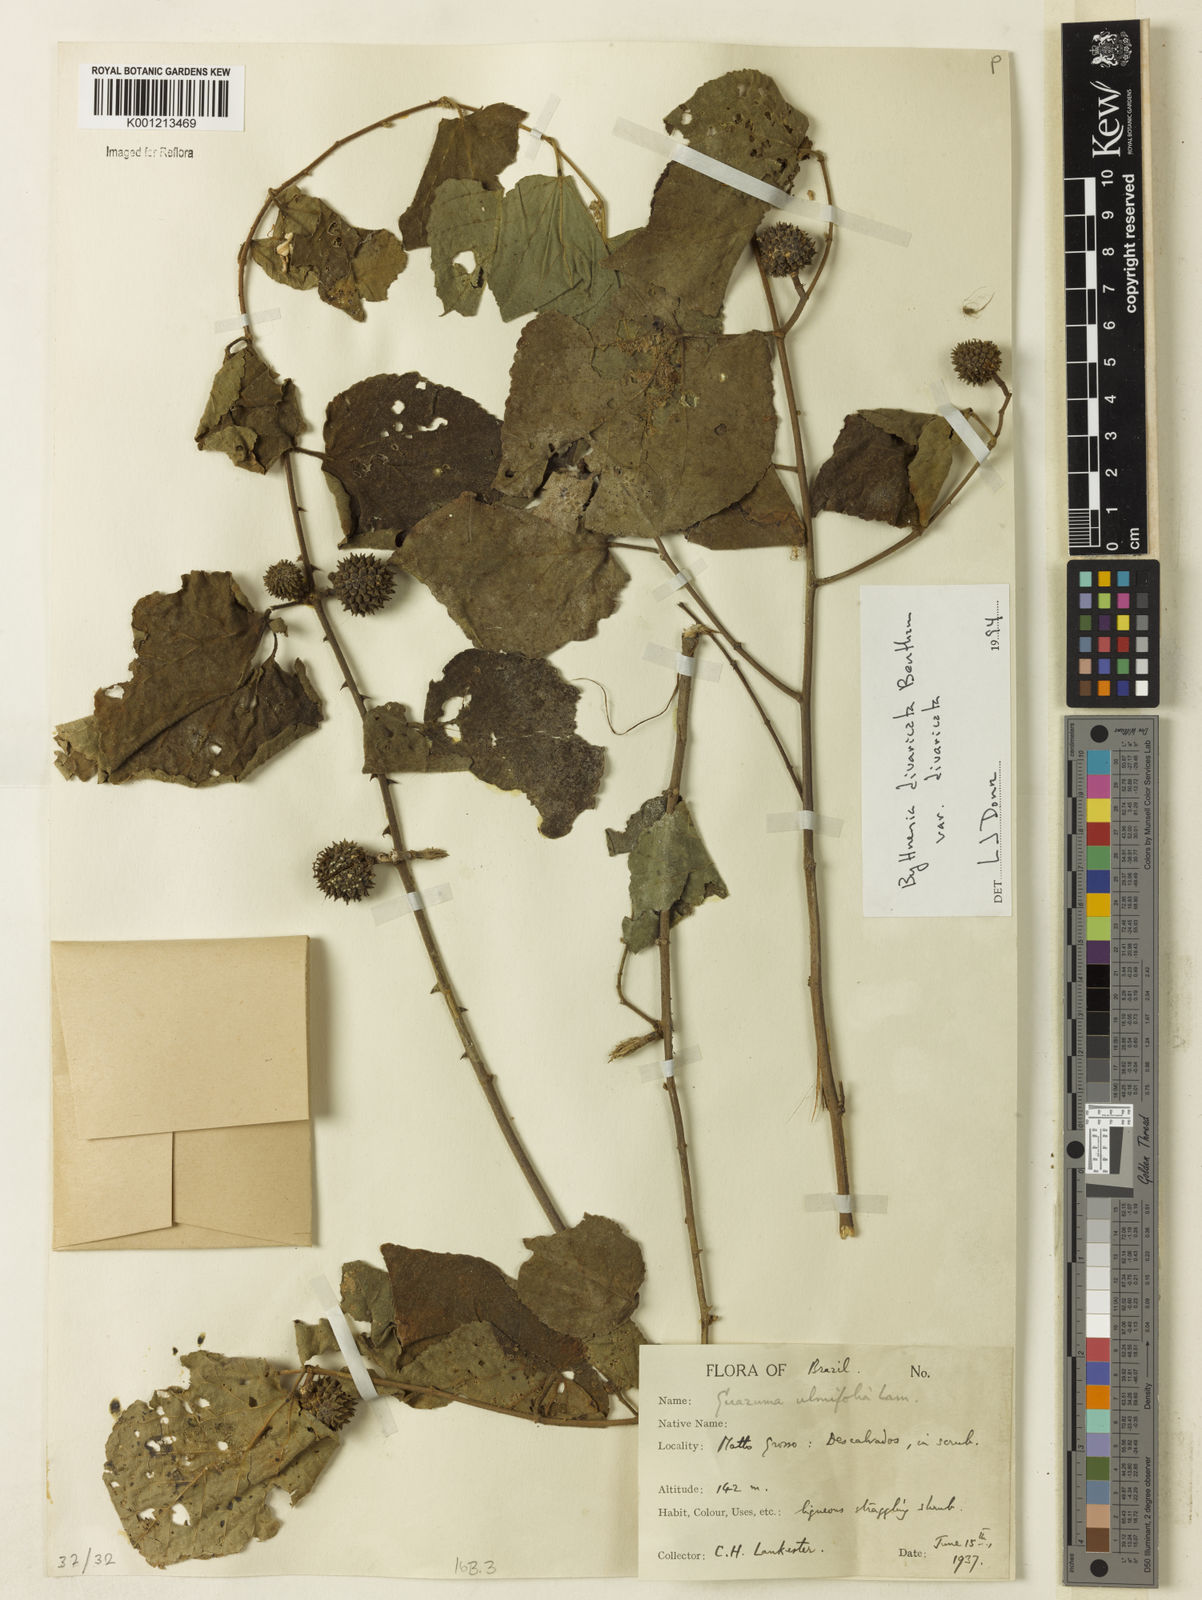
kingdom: Plantae
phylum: Tracheophyta
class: Magnoliopsida
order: Malvales
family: Malvaceae
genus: Byttneria
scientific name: Byttneria divaricata
